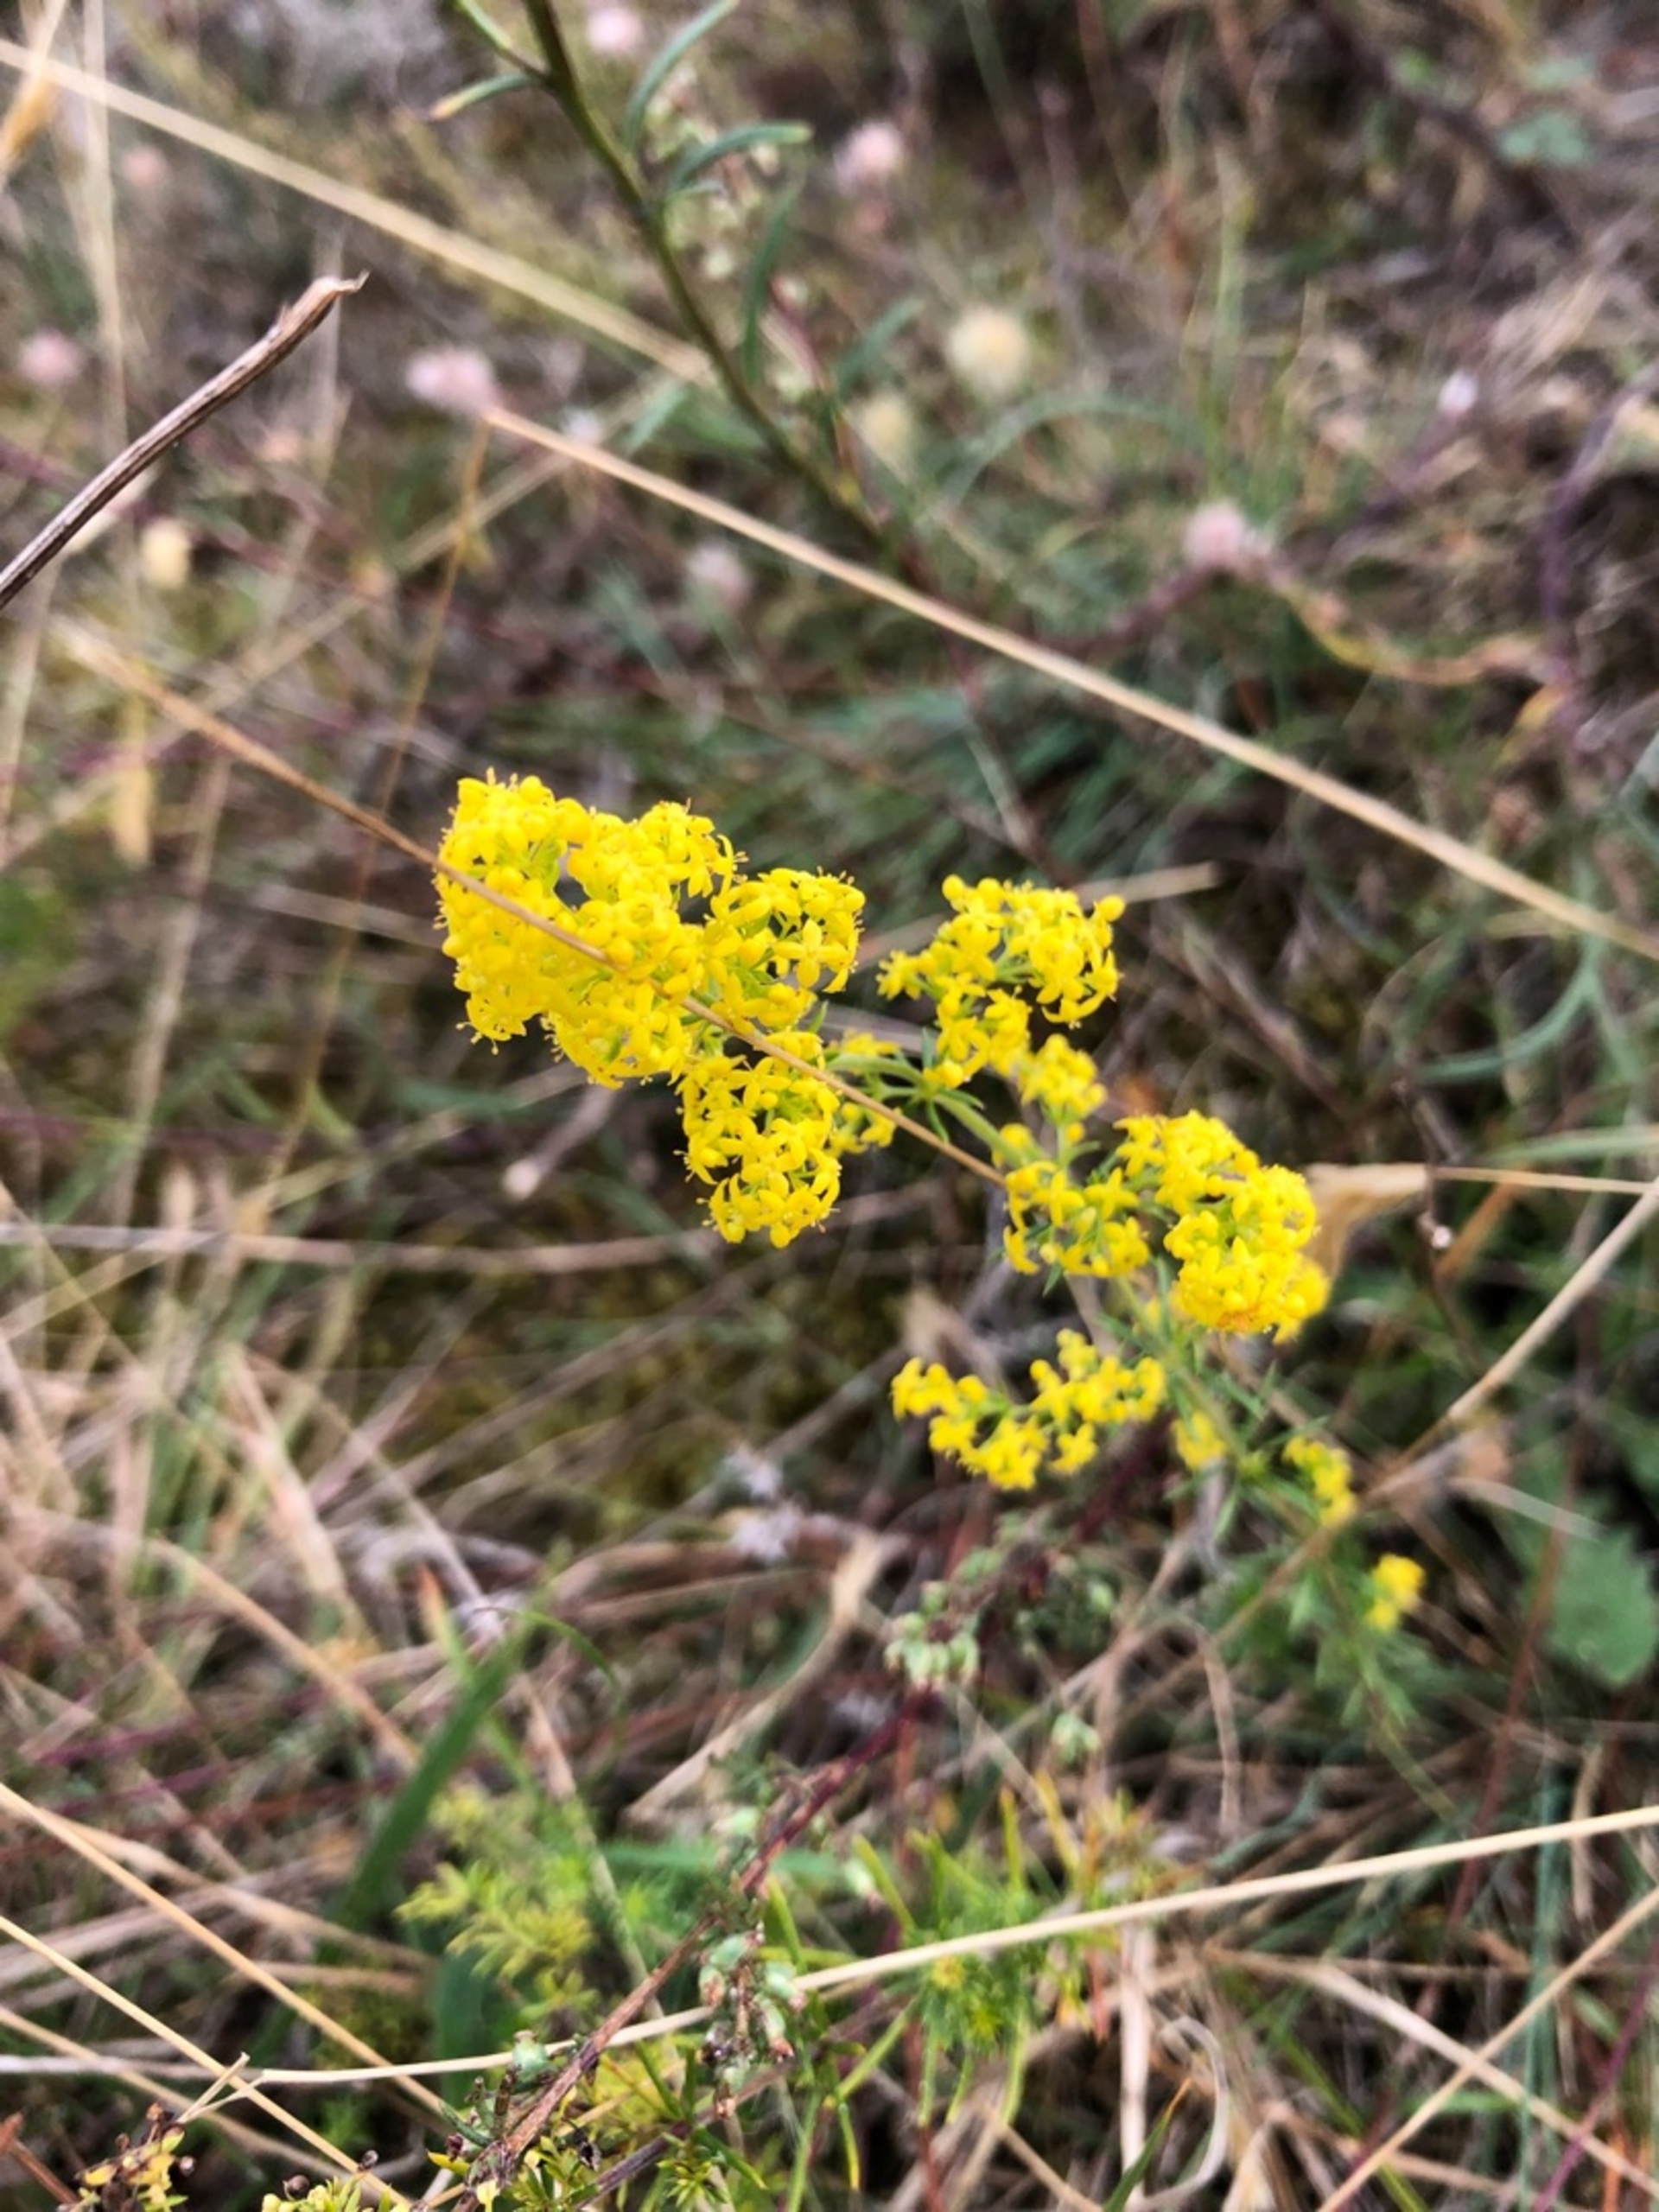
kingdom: Plantae
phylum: Tracheophyta
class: Magnoliopsida
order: Gentianales
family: Rubiaceae
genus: Galium
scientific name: Galium verum
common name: Gul snerre
